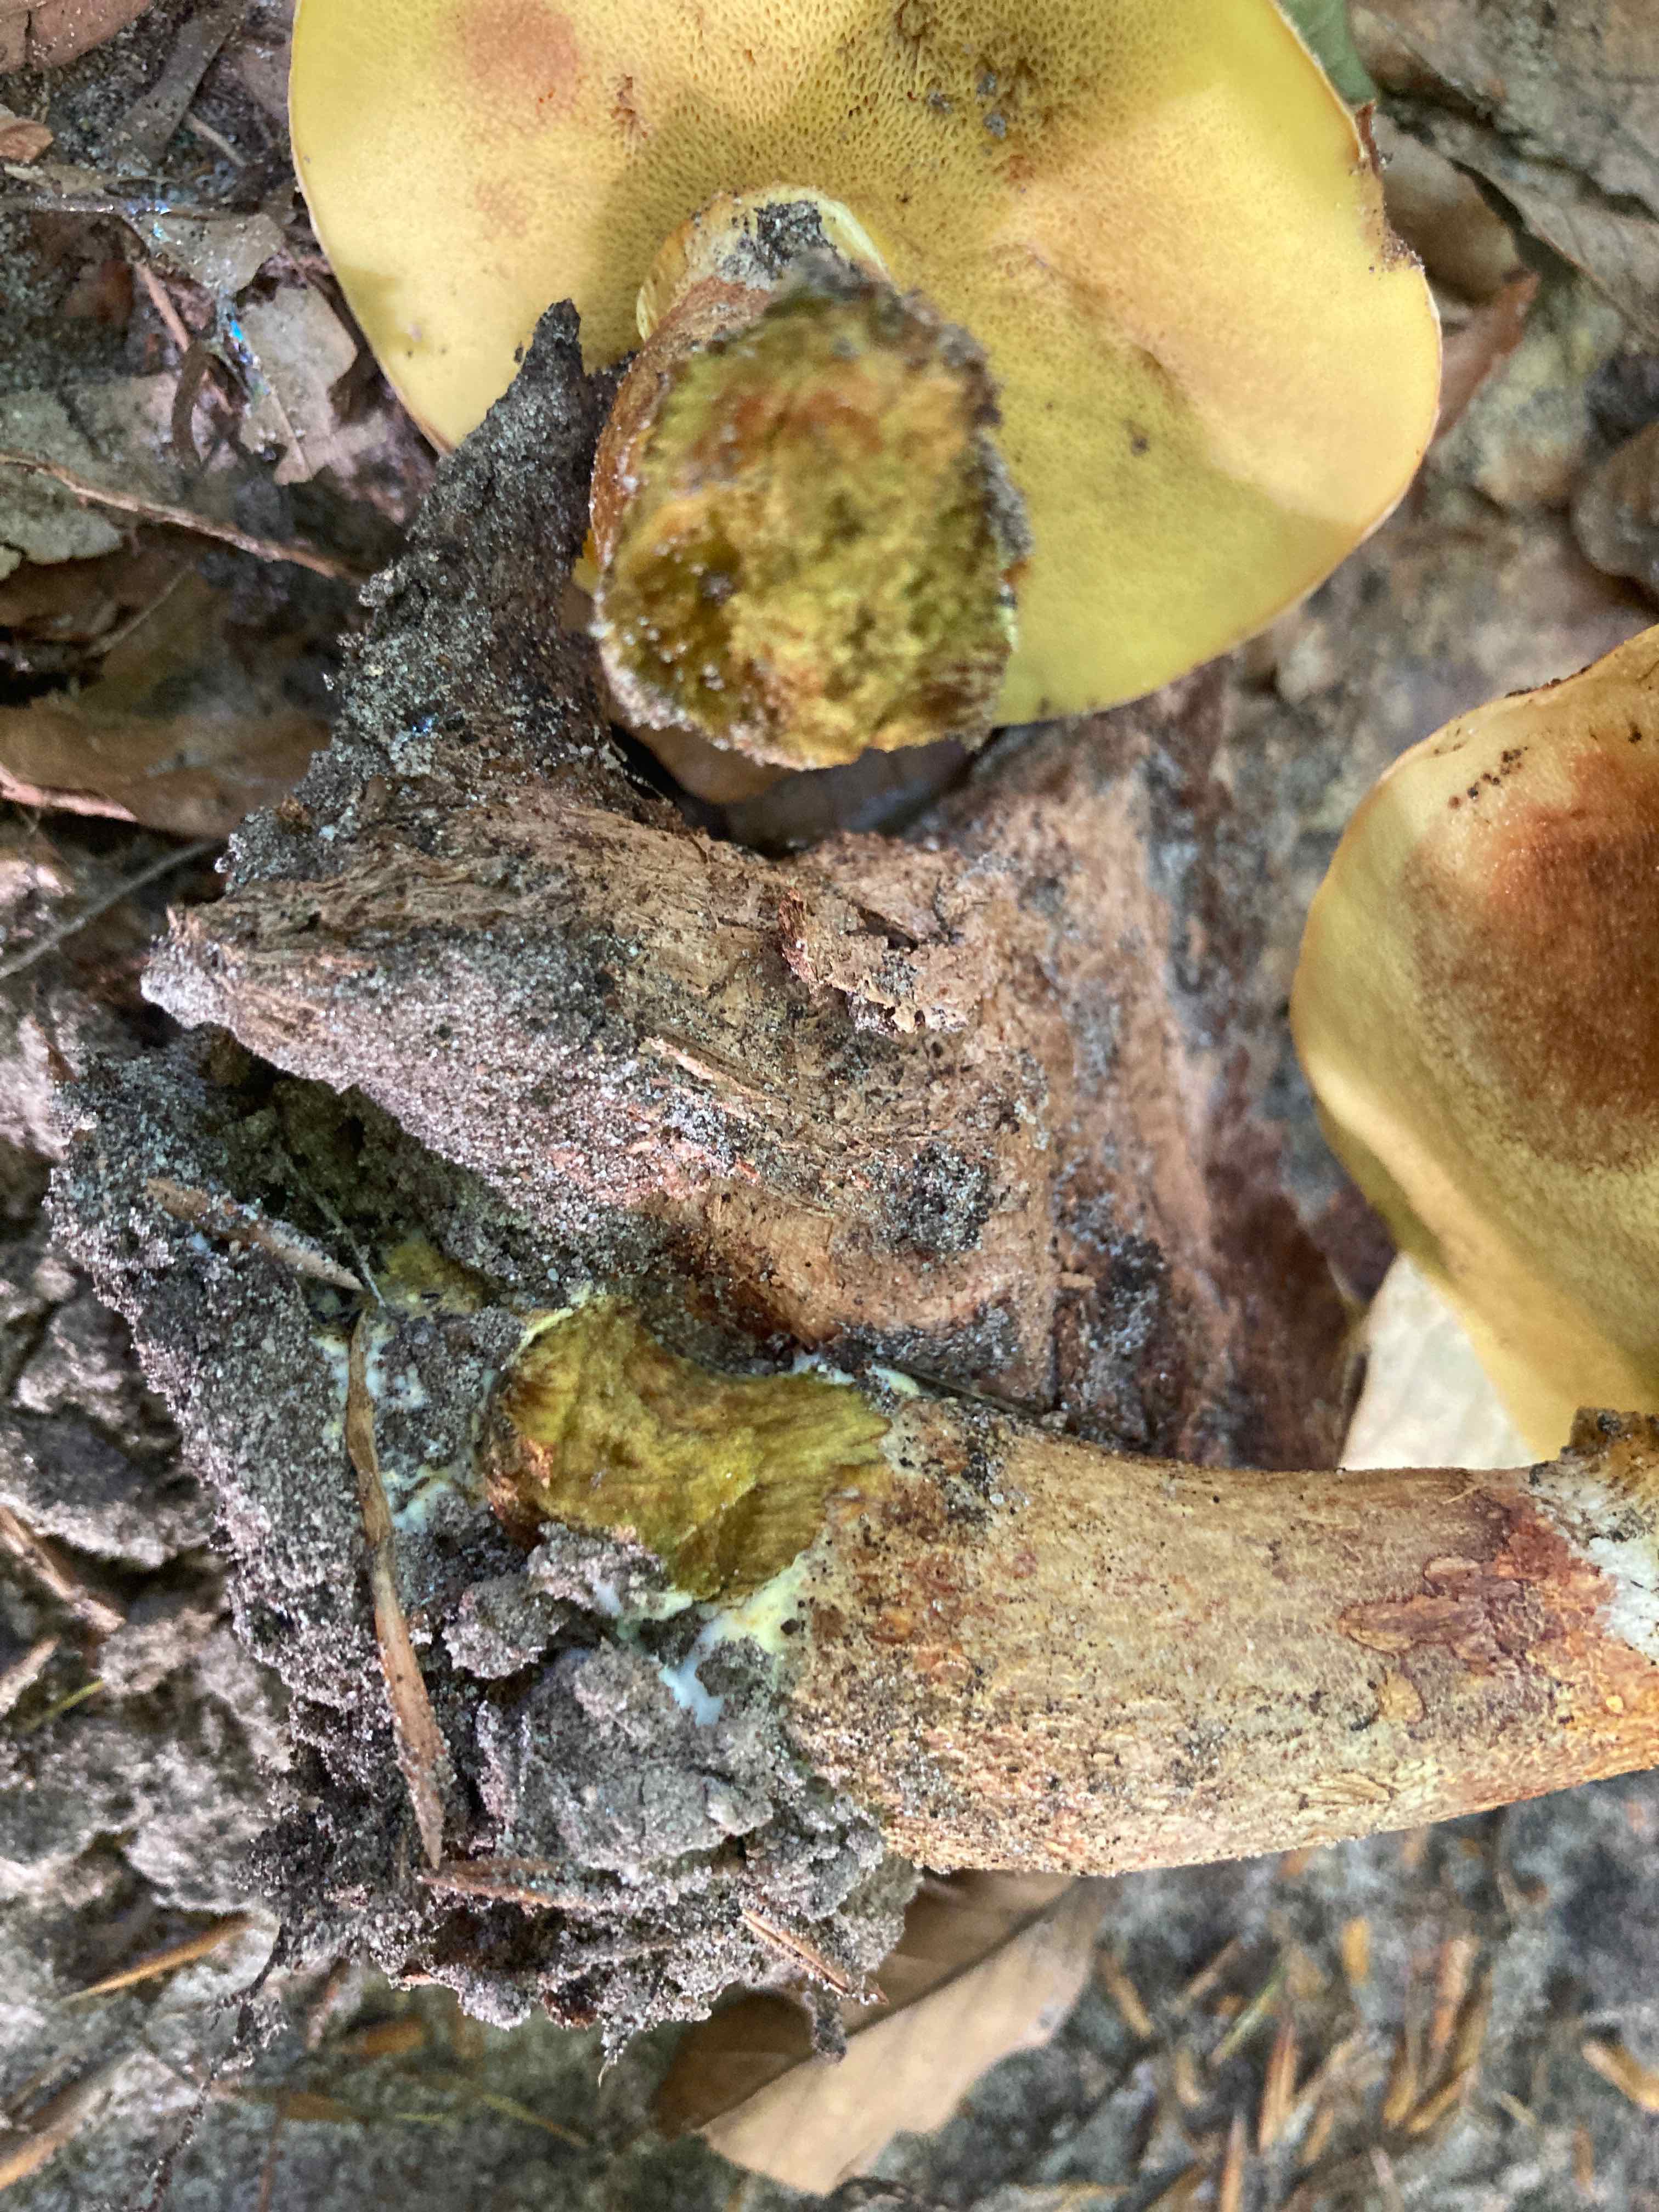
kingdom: Fungi
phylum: Basidiomycota
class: Agaricomycetes
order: Boletales
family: Suillaceae
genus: Suillus
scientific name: Suillus grevillei
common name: lærke-slimrørhat
